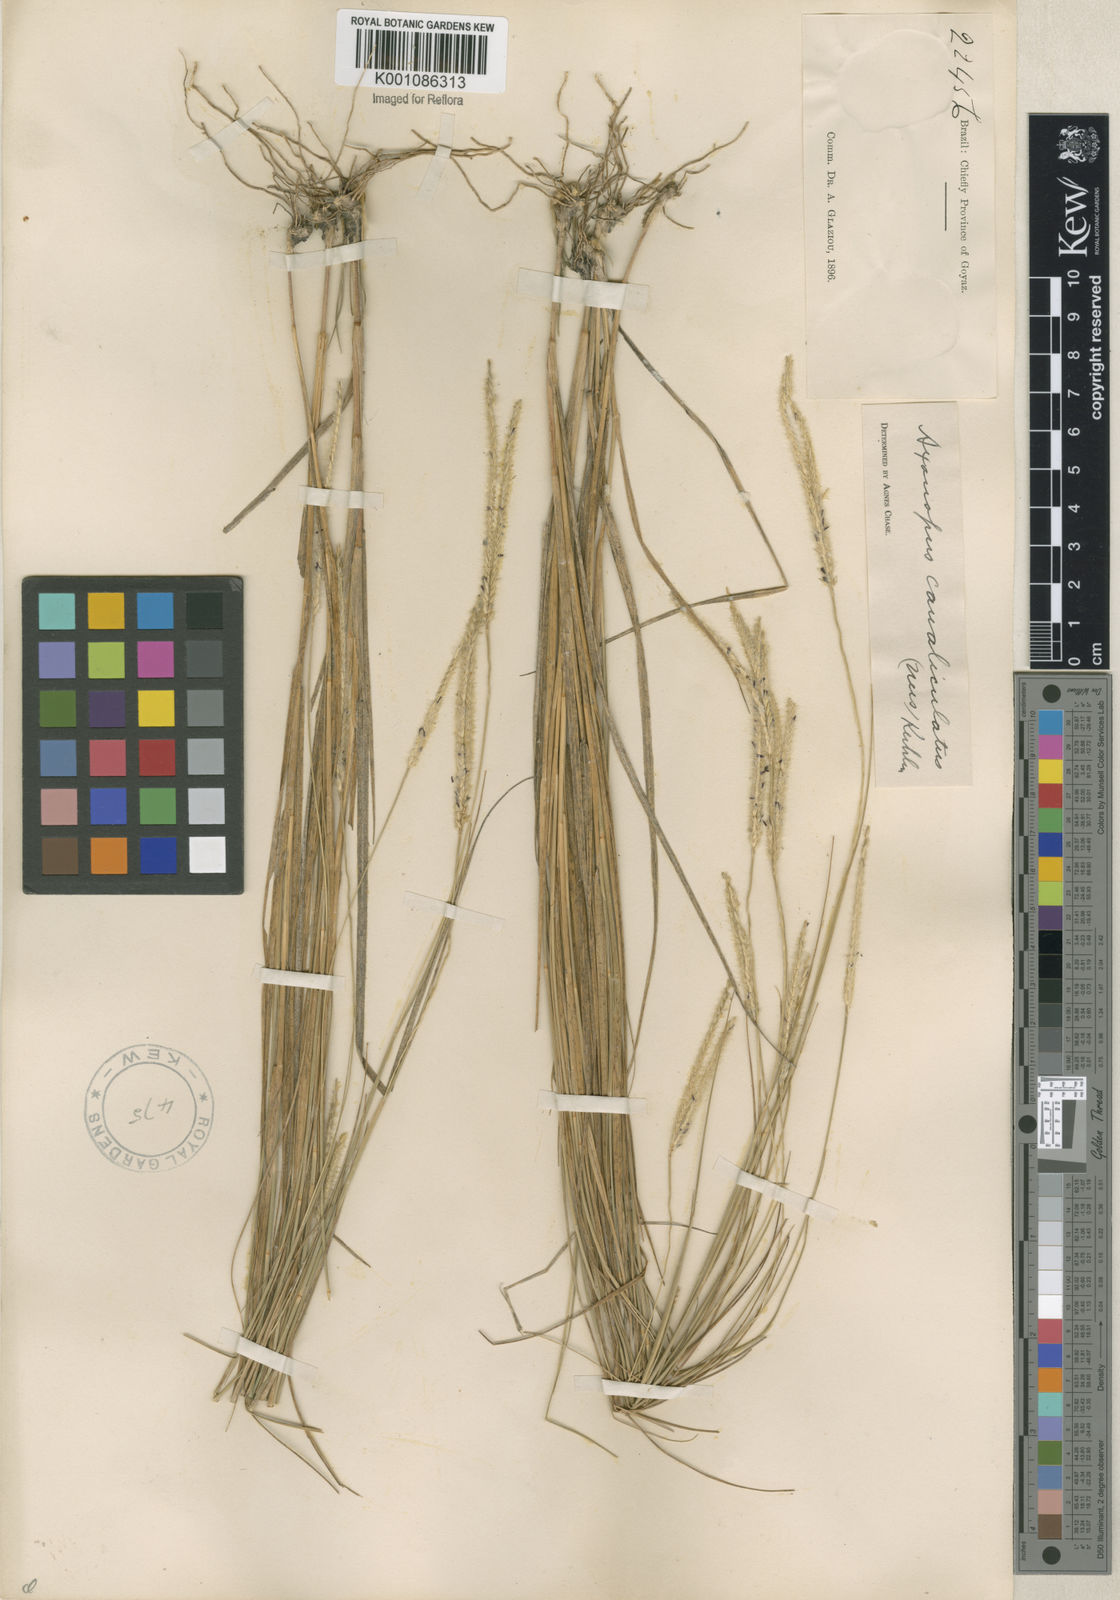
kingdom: Plantae
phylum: Tracheophyta
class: Liliopsida
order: Poales
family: Poaceae
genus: Axonopus
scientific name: Axonopus fastigiatus
